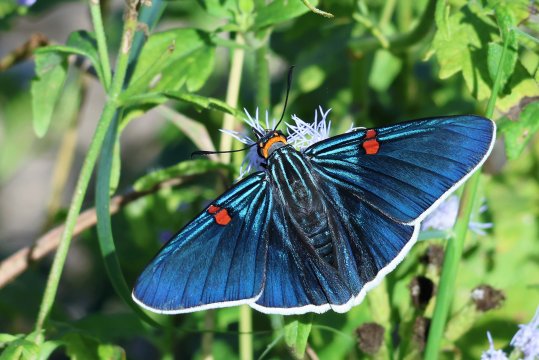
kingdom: Animalia
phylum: Arthropoda
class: Insecta
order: Lepidoptera
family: Hesperiidae
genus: Phocides
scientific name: Phocides polybius
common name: Guava Skipper
